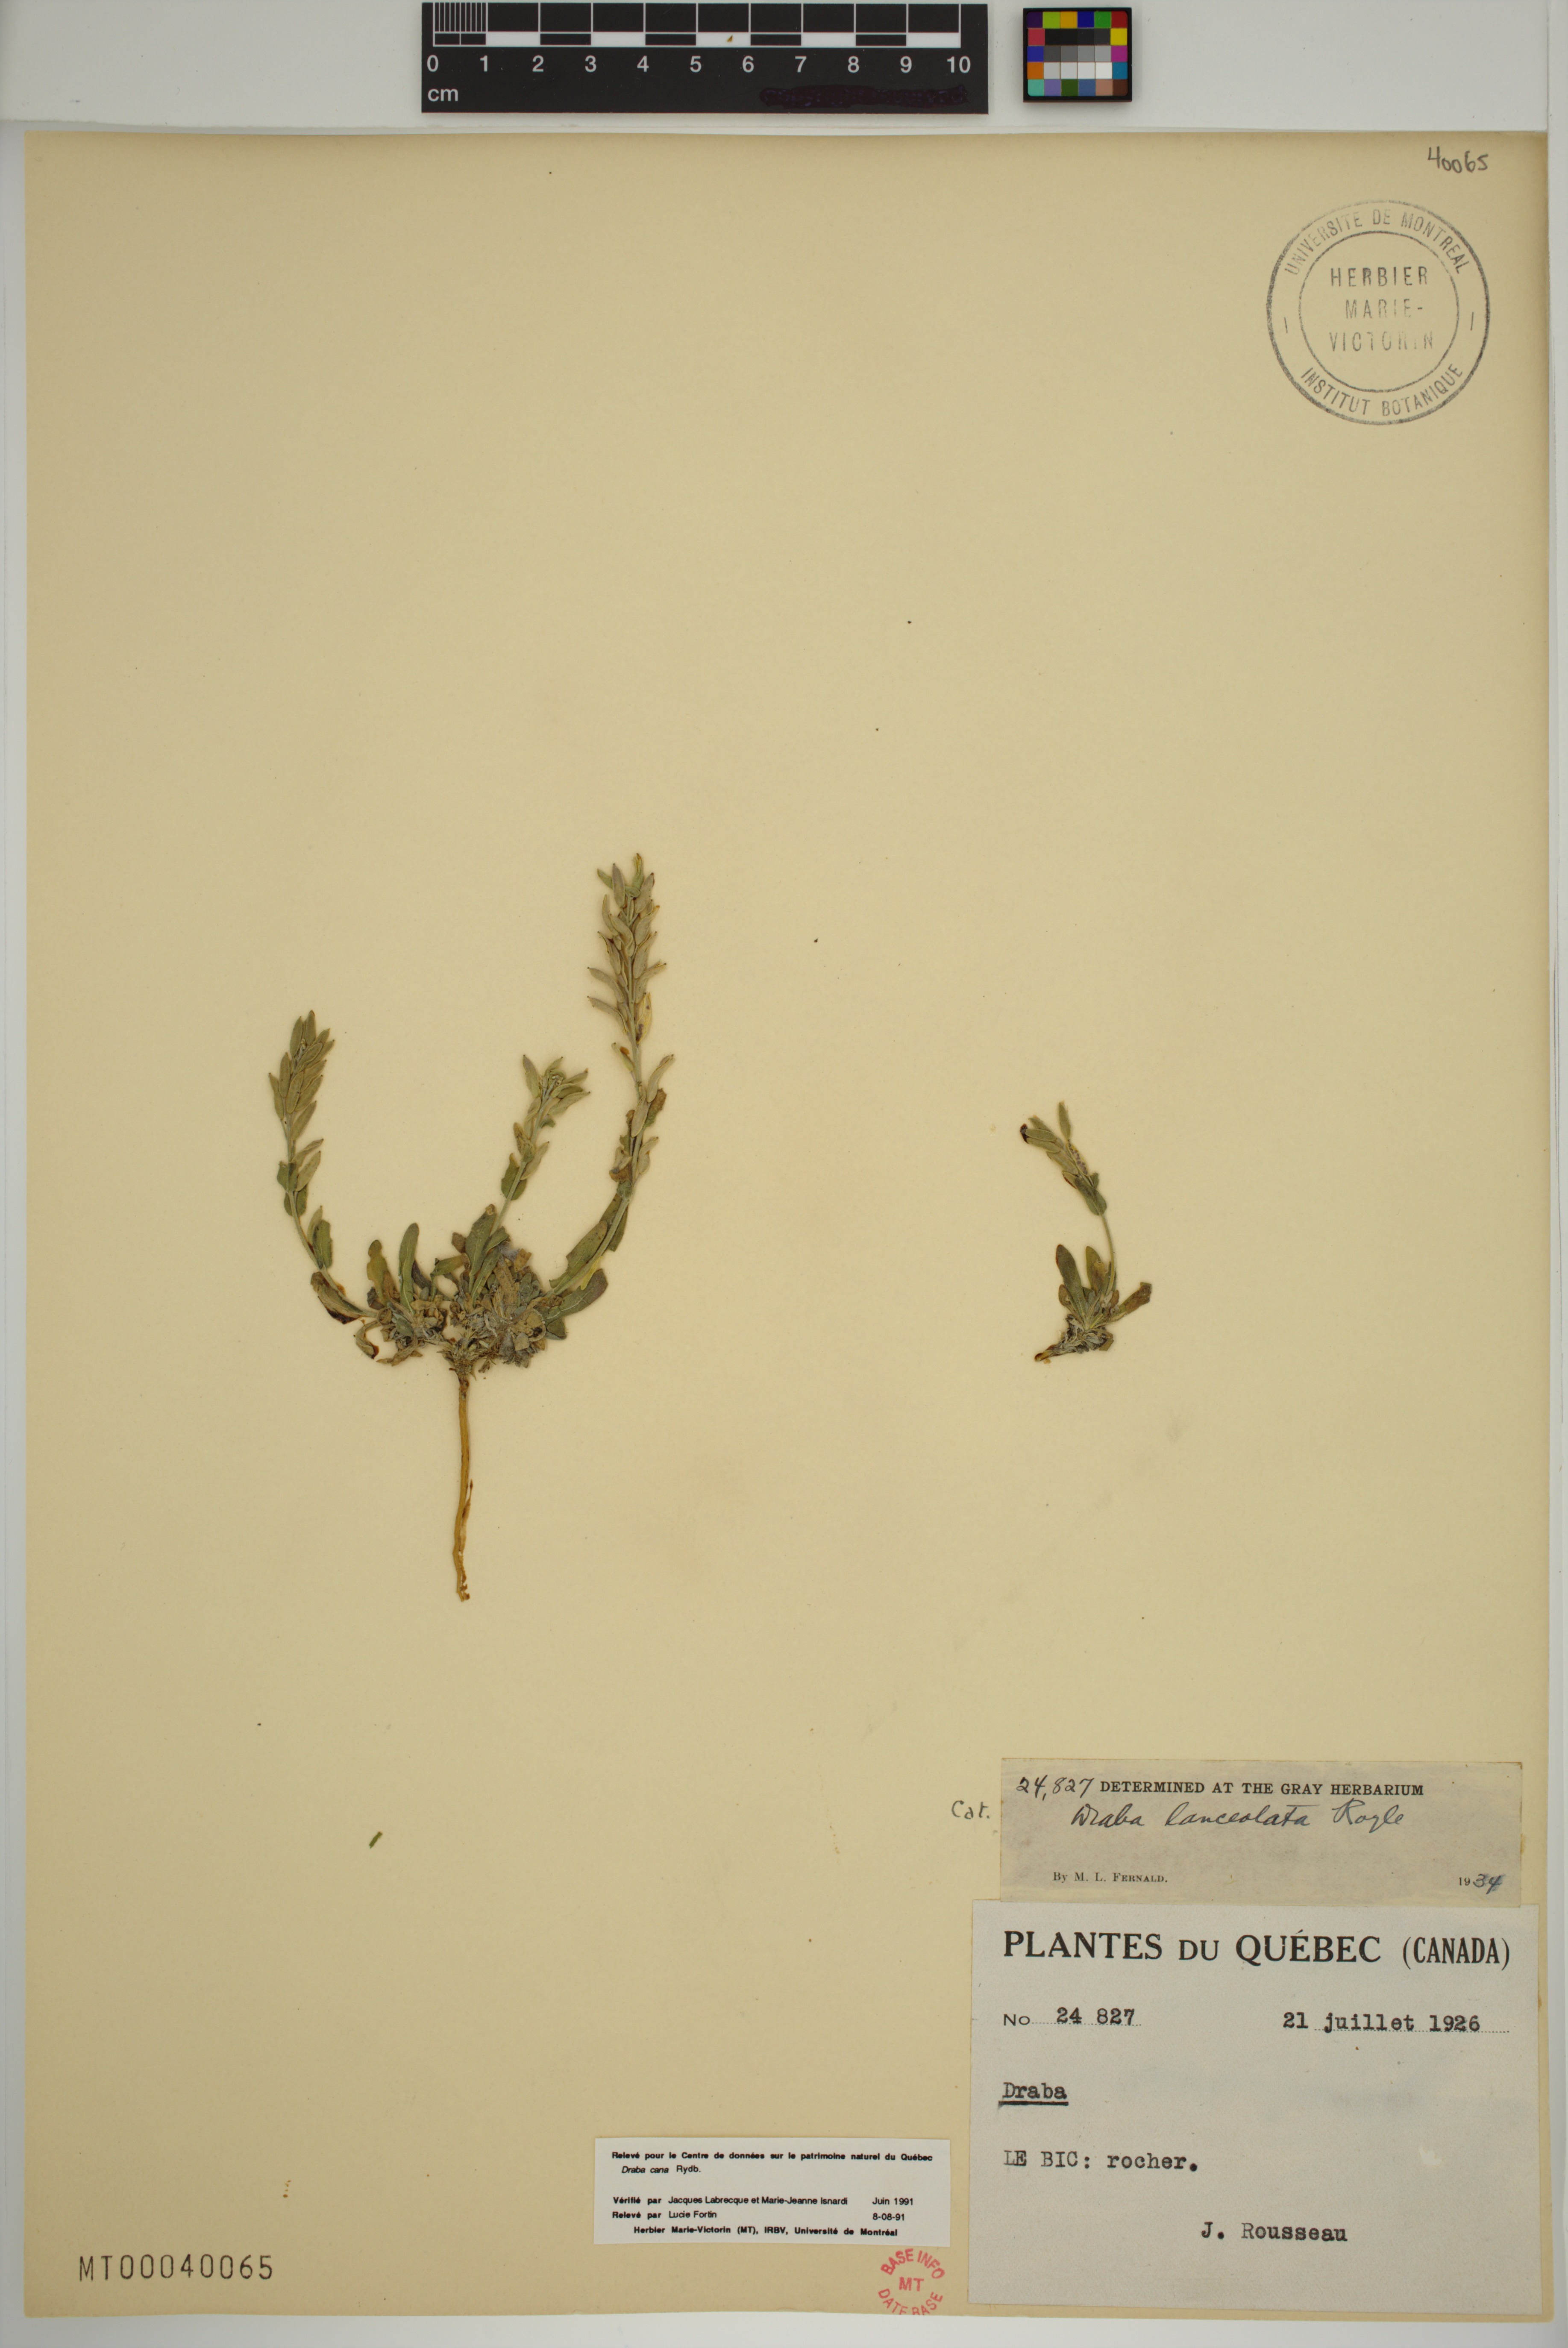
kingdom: Plantae
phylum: Tracheophyta
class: Magnoliopsida
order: Brassicales
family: Brassicaceae
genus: Draba
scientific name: Draba cana
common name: Hoary draba
